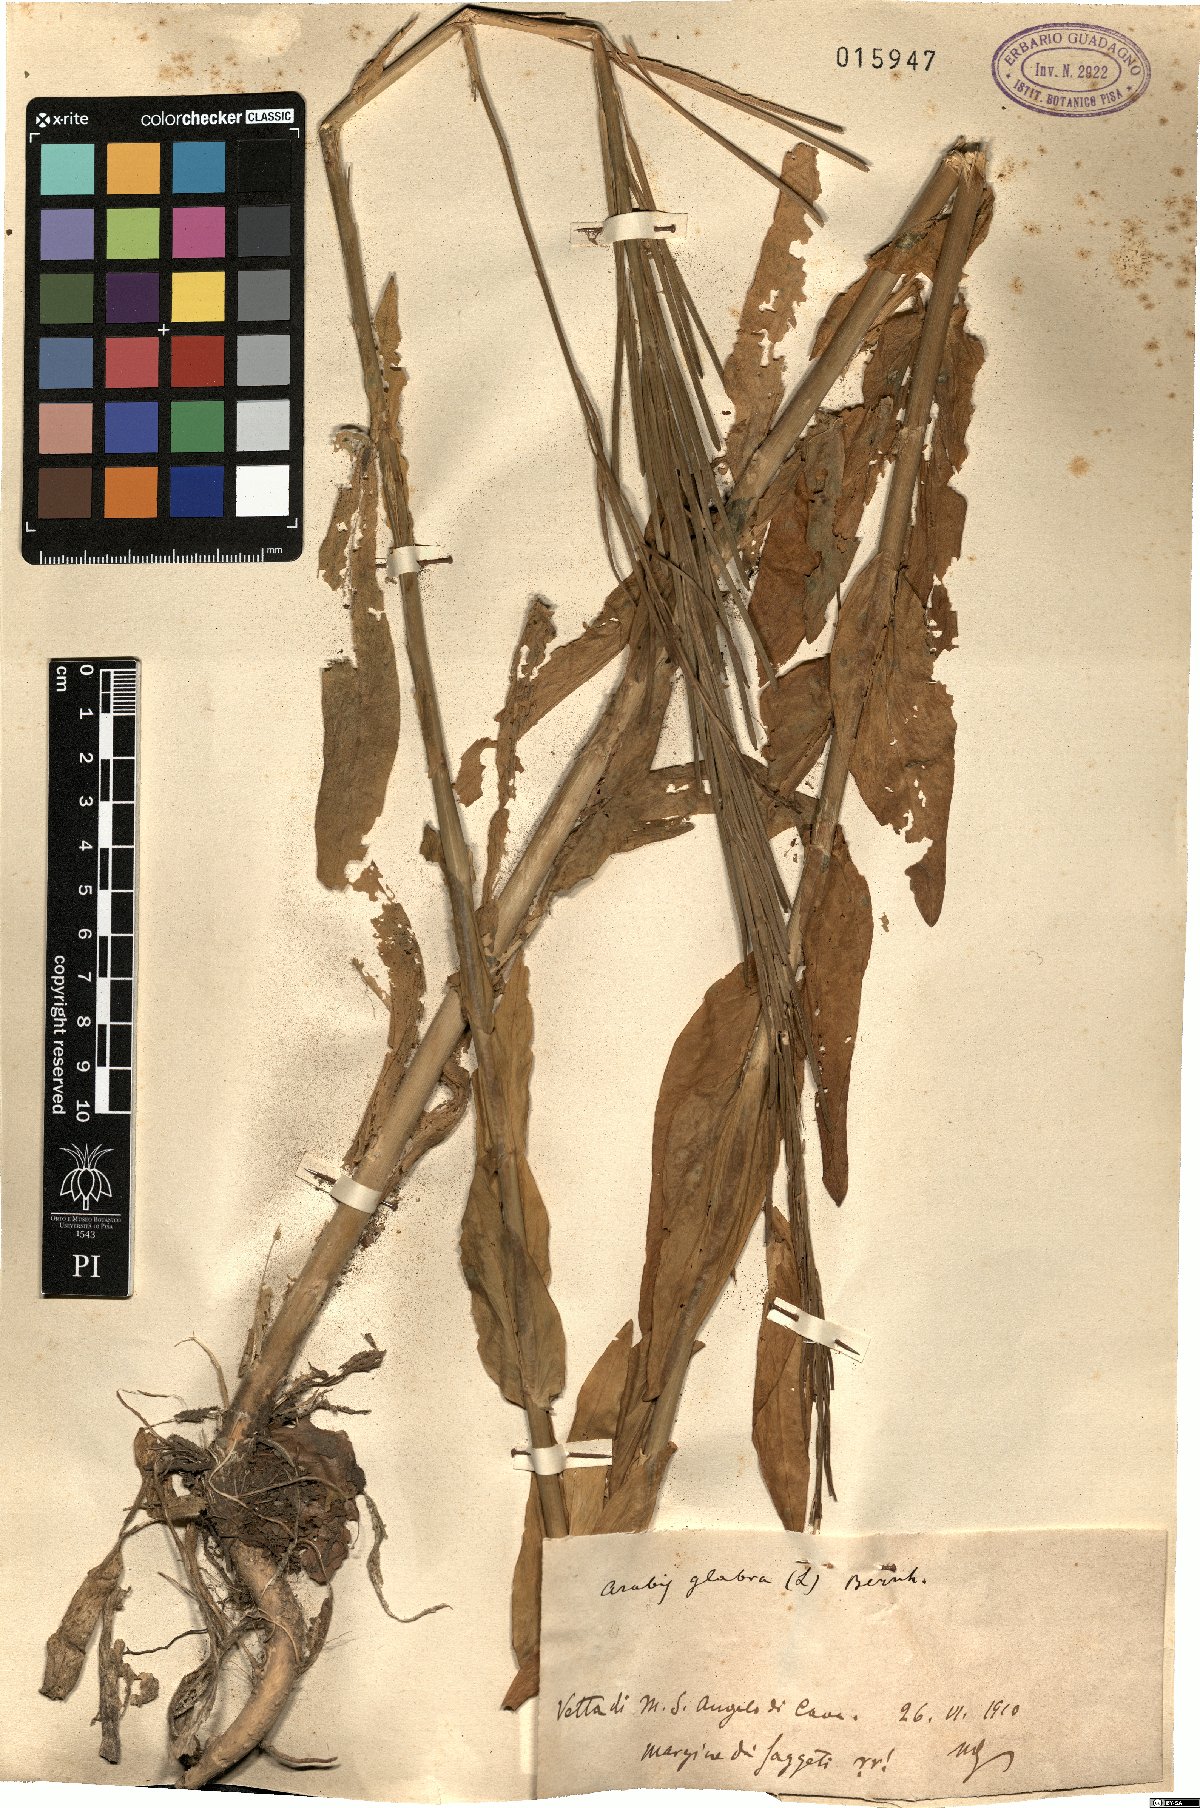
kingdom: Plantae
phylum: Tracheophyta
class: Magnoliopsida
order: Brassicales
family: Brassicaceae
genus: Turritis
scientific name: Turritis glabra
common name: Tower rockcress
